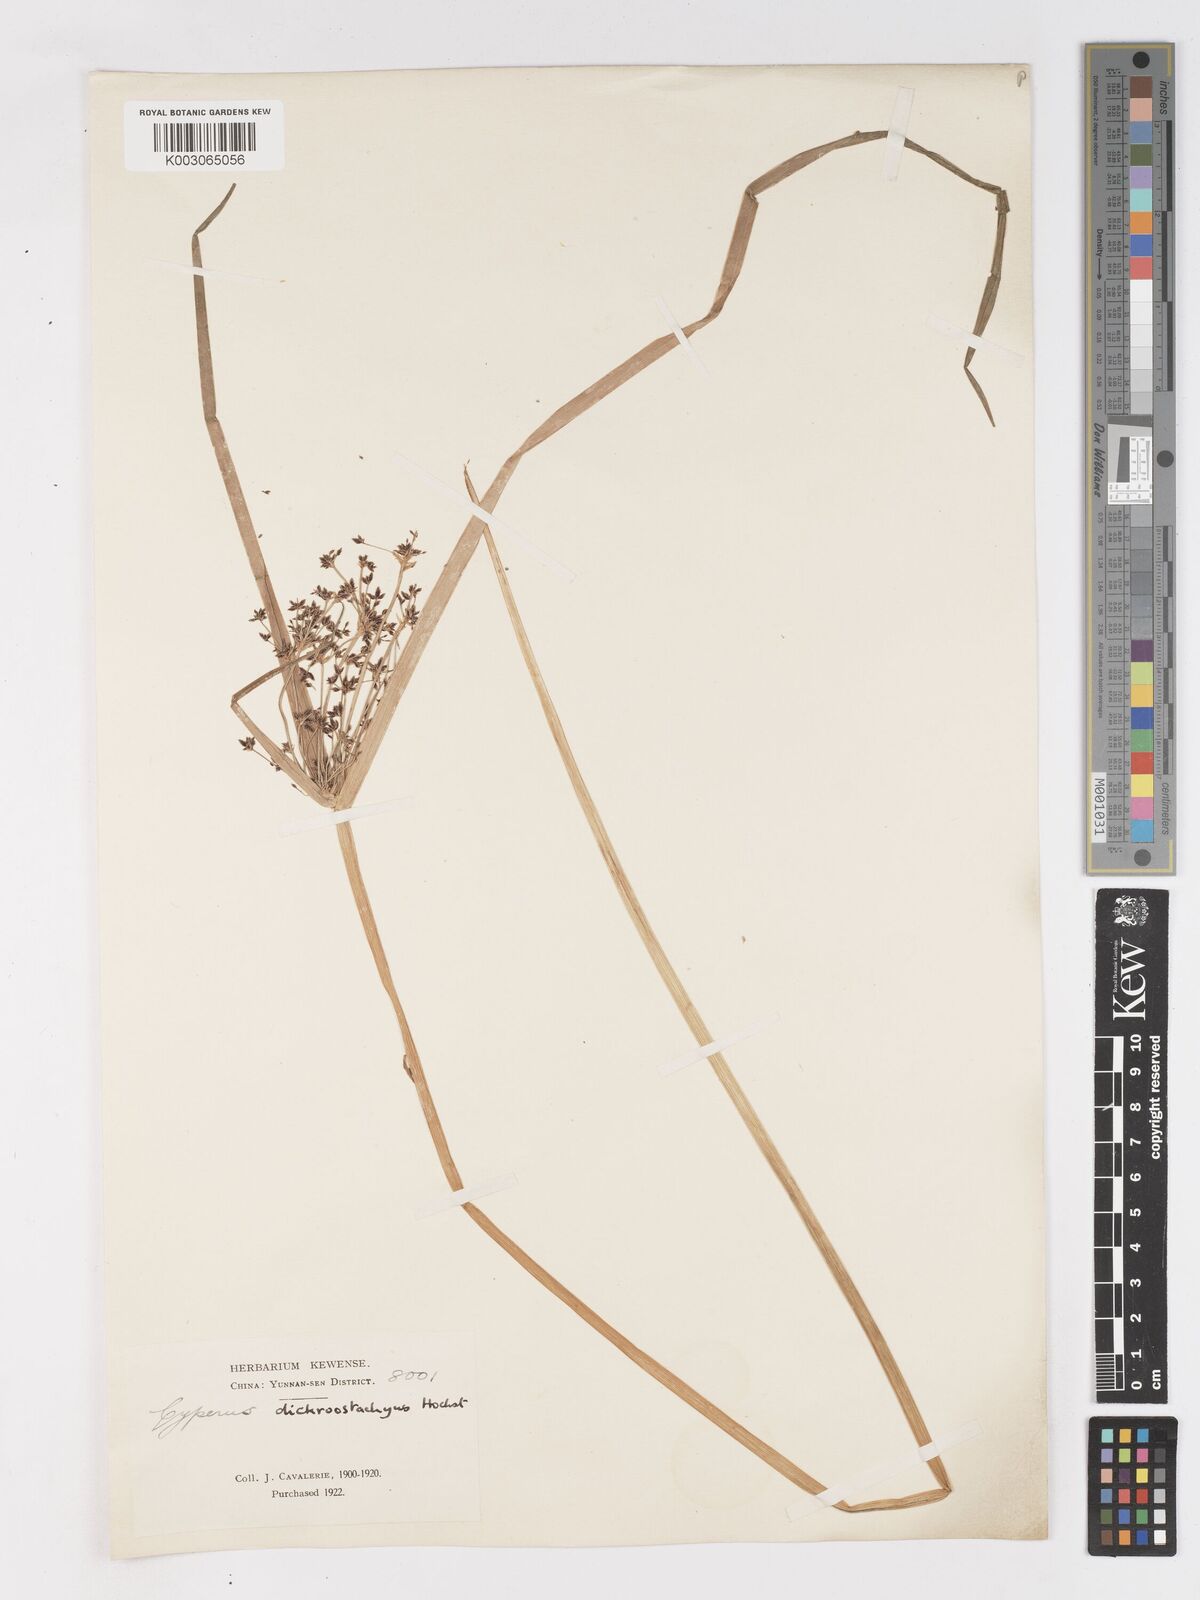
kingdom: Plantae
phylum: Tracheophyta
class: Liliopsida
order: Poales
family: Cyperaceae
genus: Cyperus
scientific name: Cyperus dichrostachyus
